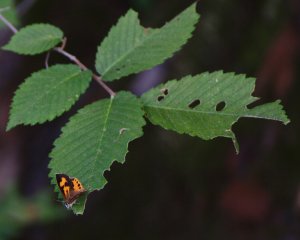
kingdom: Animalia
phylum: Arthropoda
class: Insecta
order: Lepidoptera
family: Lycaenidae
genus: Feniseca
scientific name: Feniseca tarquinius
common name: Harvester
